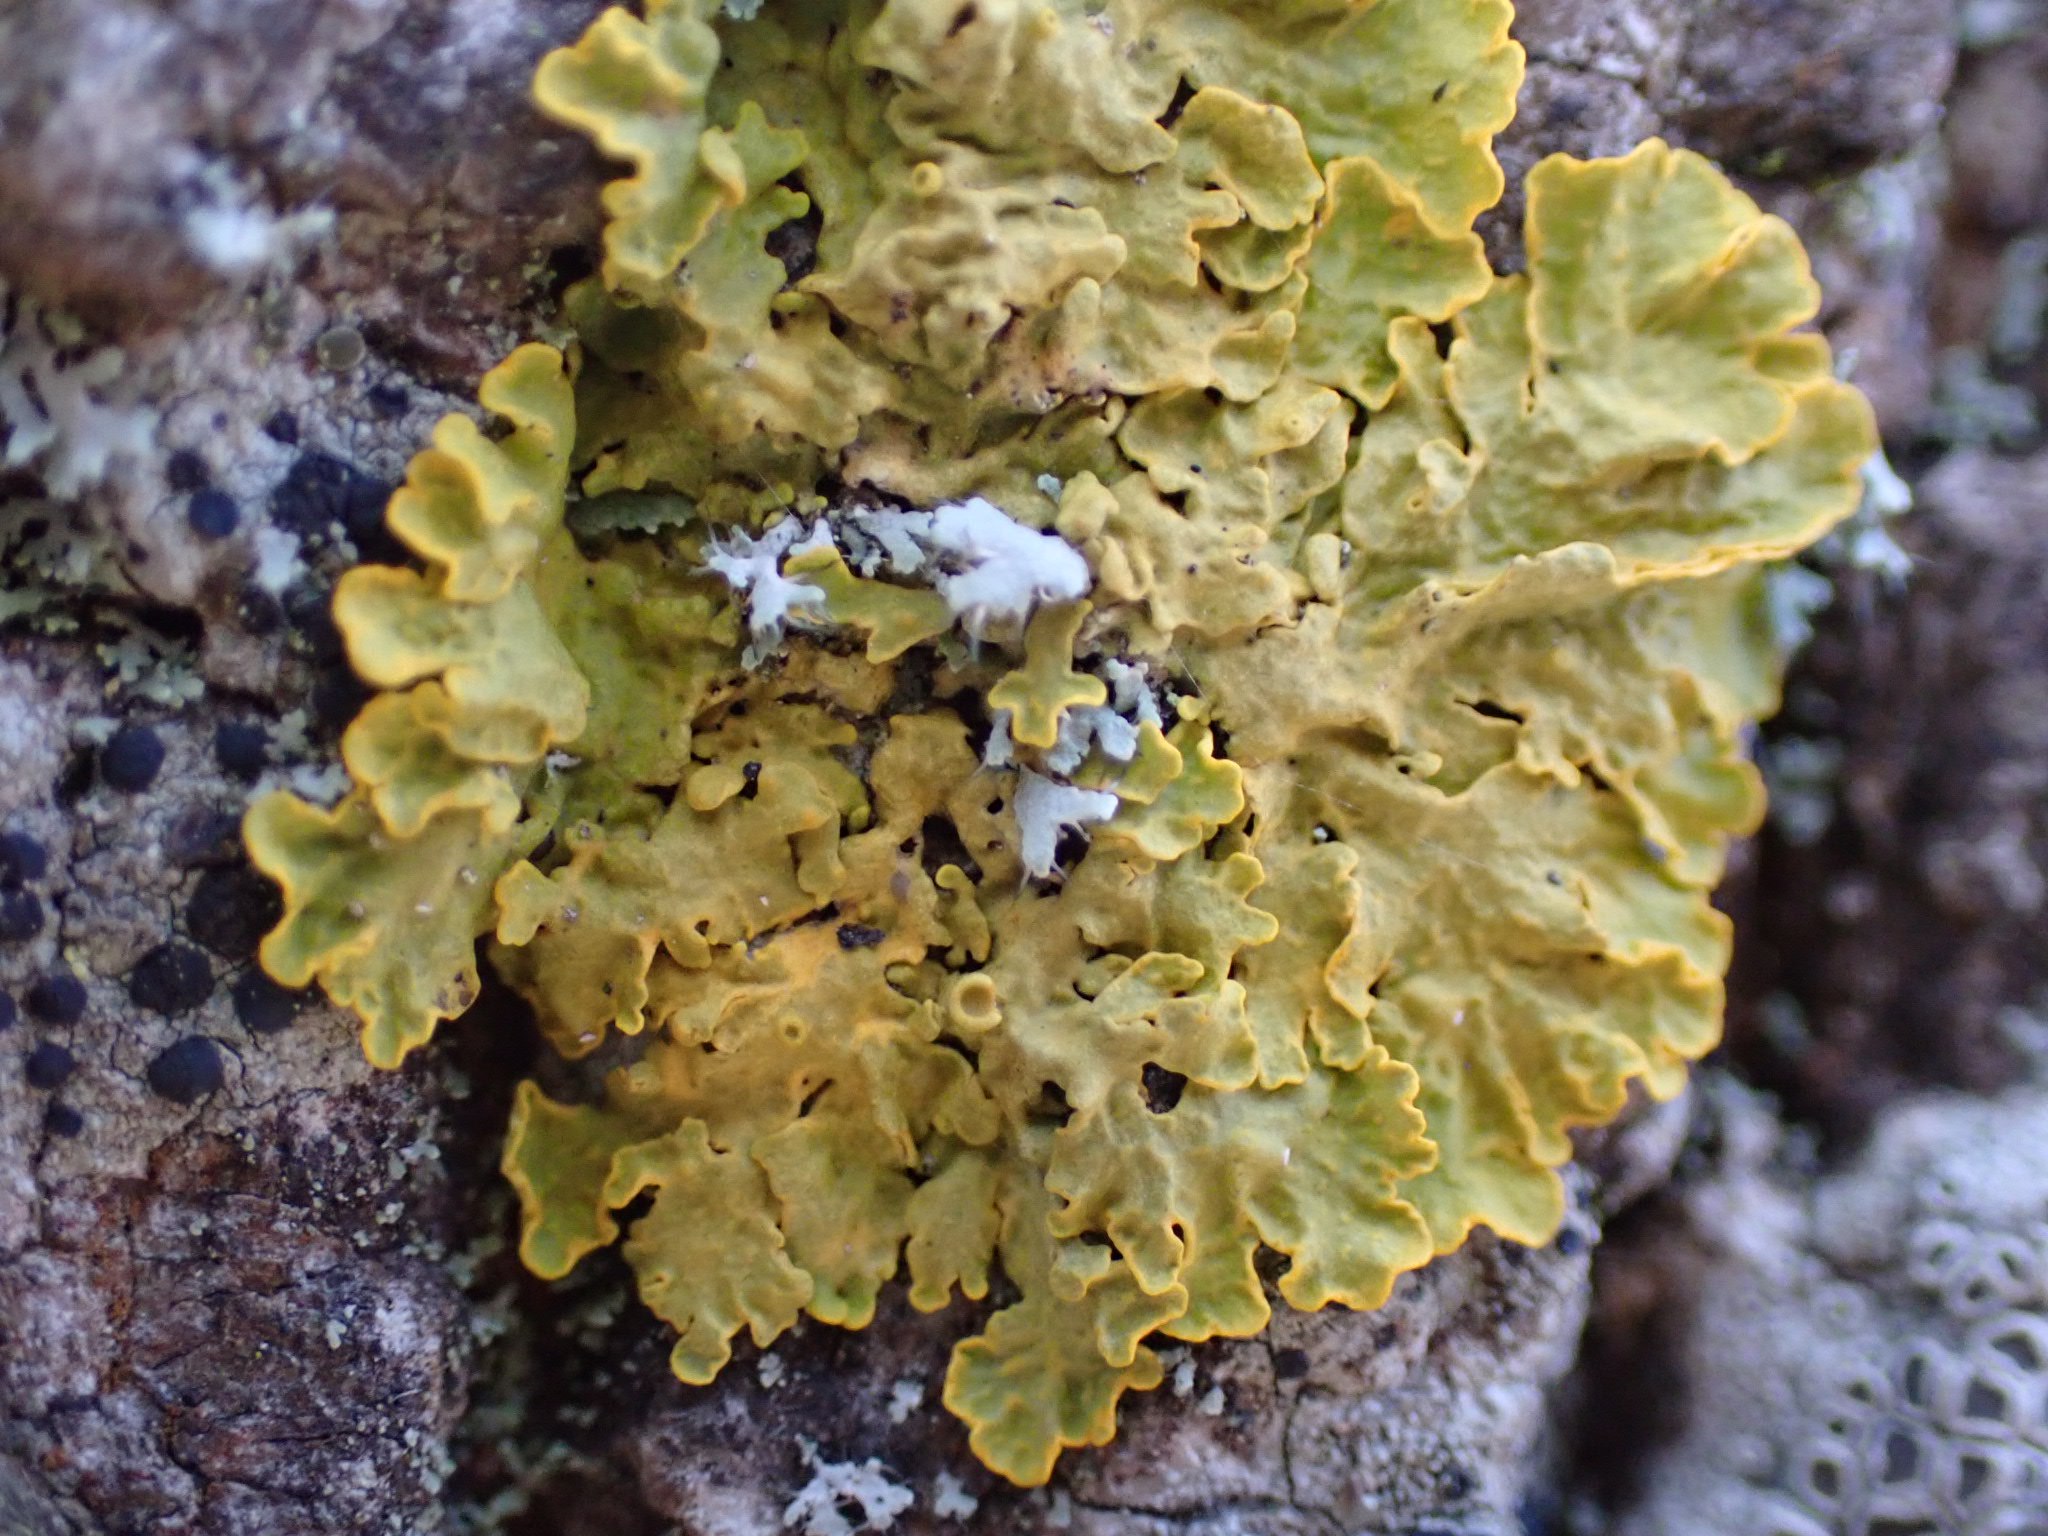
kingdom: Fungi
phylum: Ascomycota
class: Lecanoromycetes
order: Teloschistales
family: Teloschistaceae
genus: Xanthoria
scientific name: Xanthoria parietina
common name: almindelig væggelav
